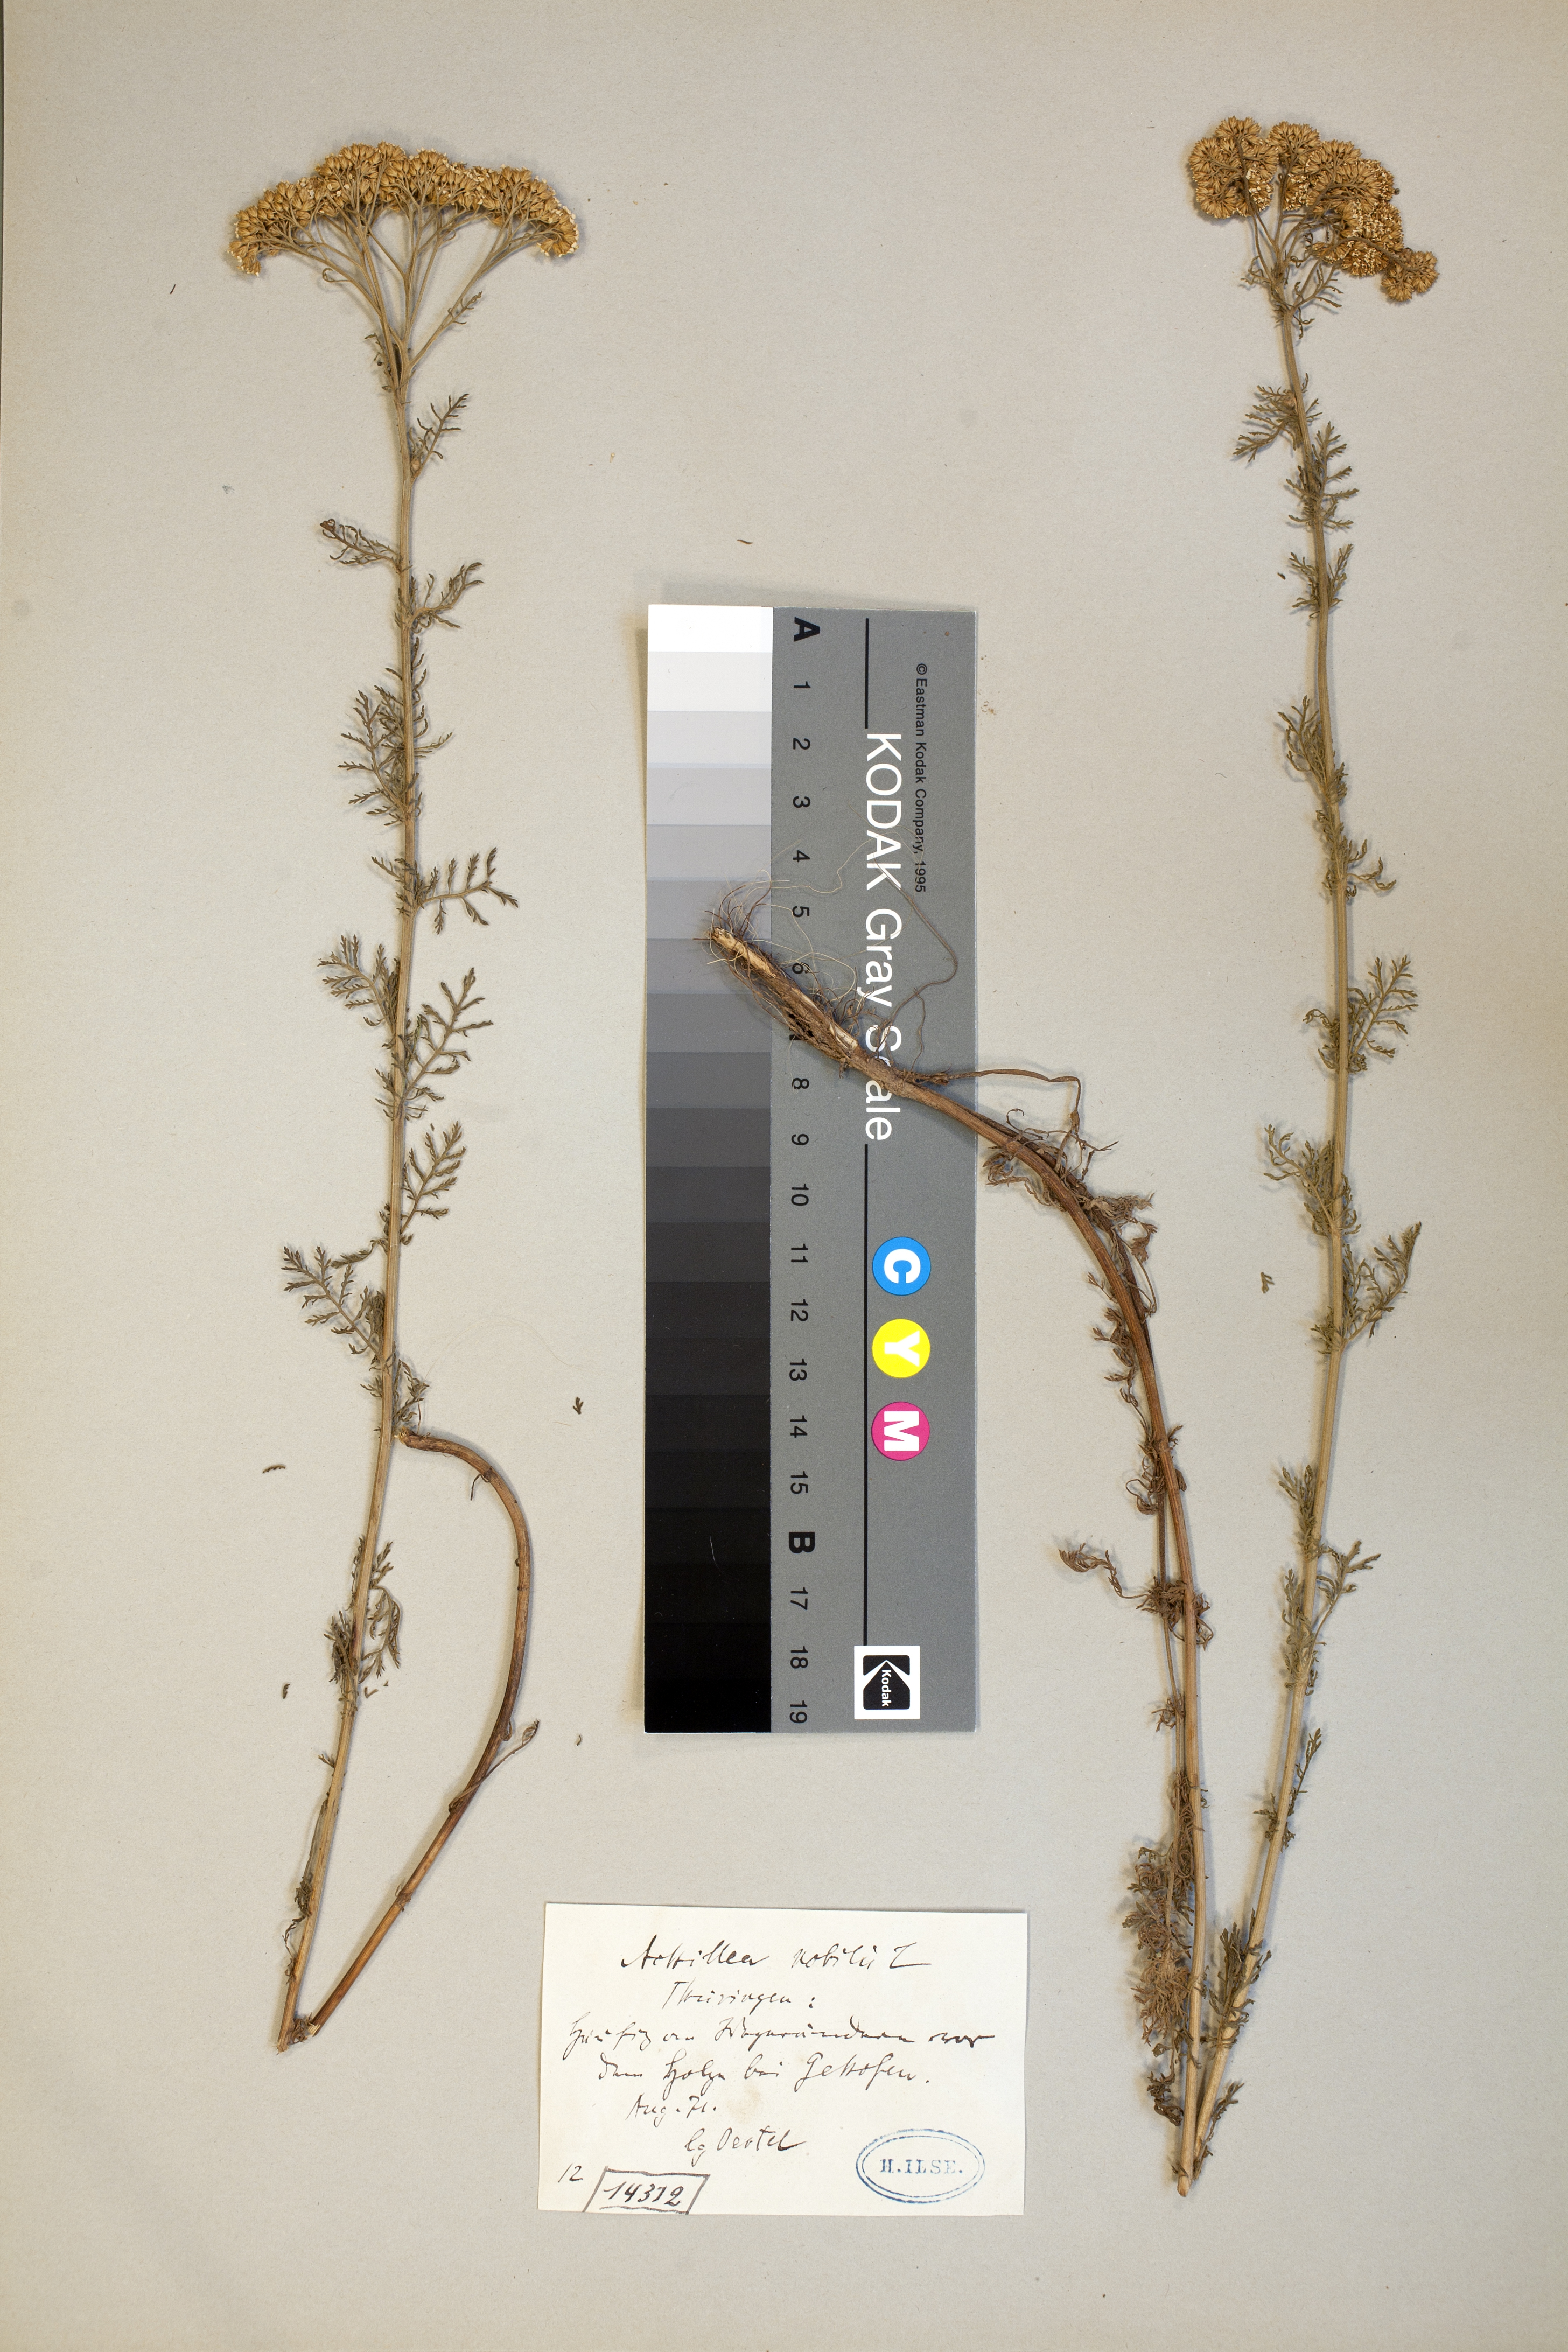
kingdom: Plantae
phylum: Tracheophyta
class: Magnoliopsida
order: Asterales
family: Asteraceae
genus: Achillea
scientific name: Achillea nobilis
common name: Noble yarrow
